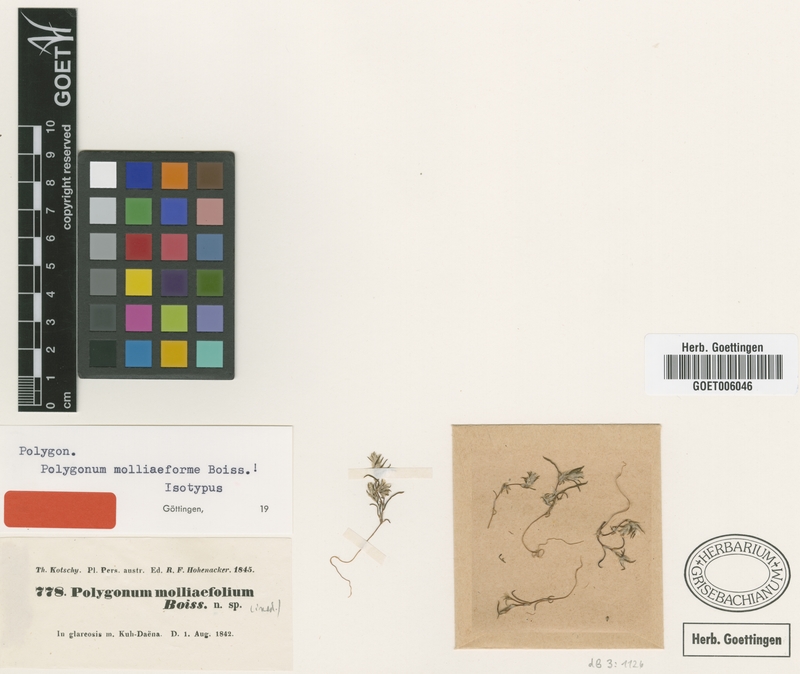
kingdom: Plantae
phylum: Tracheophyta
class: Magnoliopsida
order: Caryophyllales
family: Polygonaceae
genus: Polygonum
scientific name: Polygonum molliiforme
